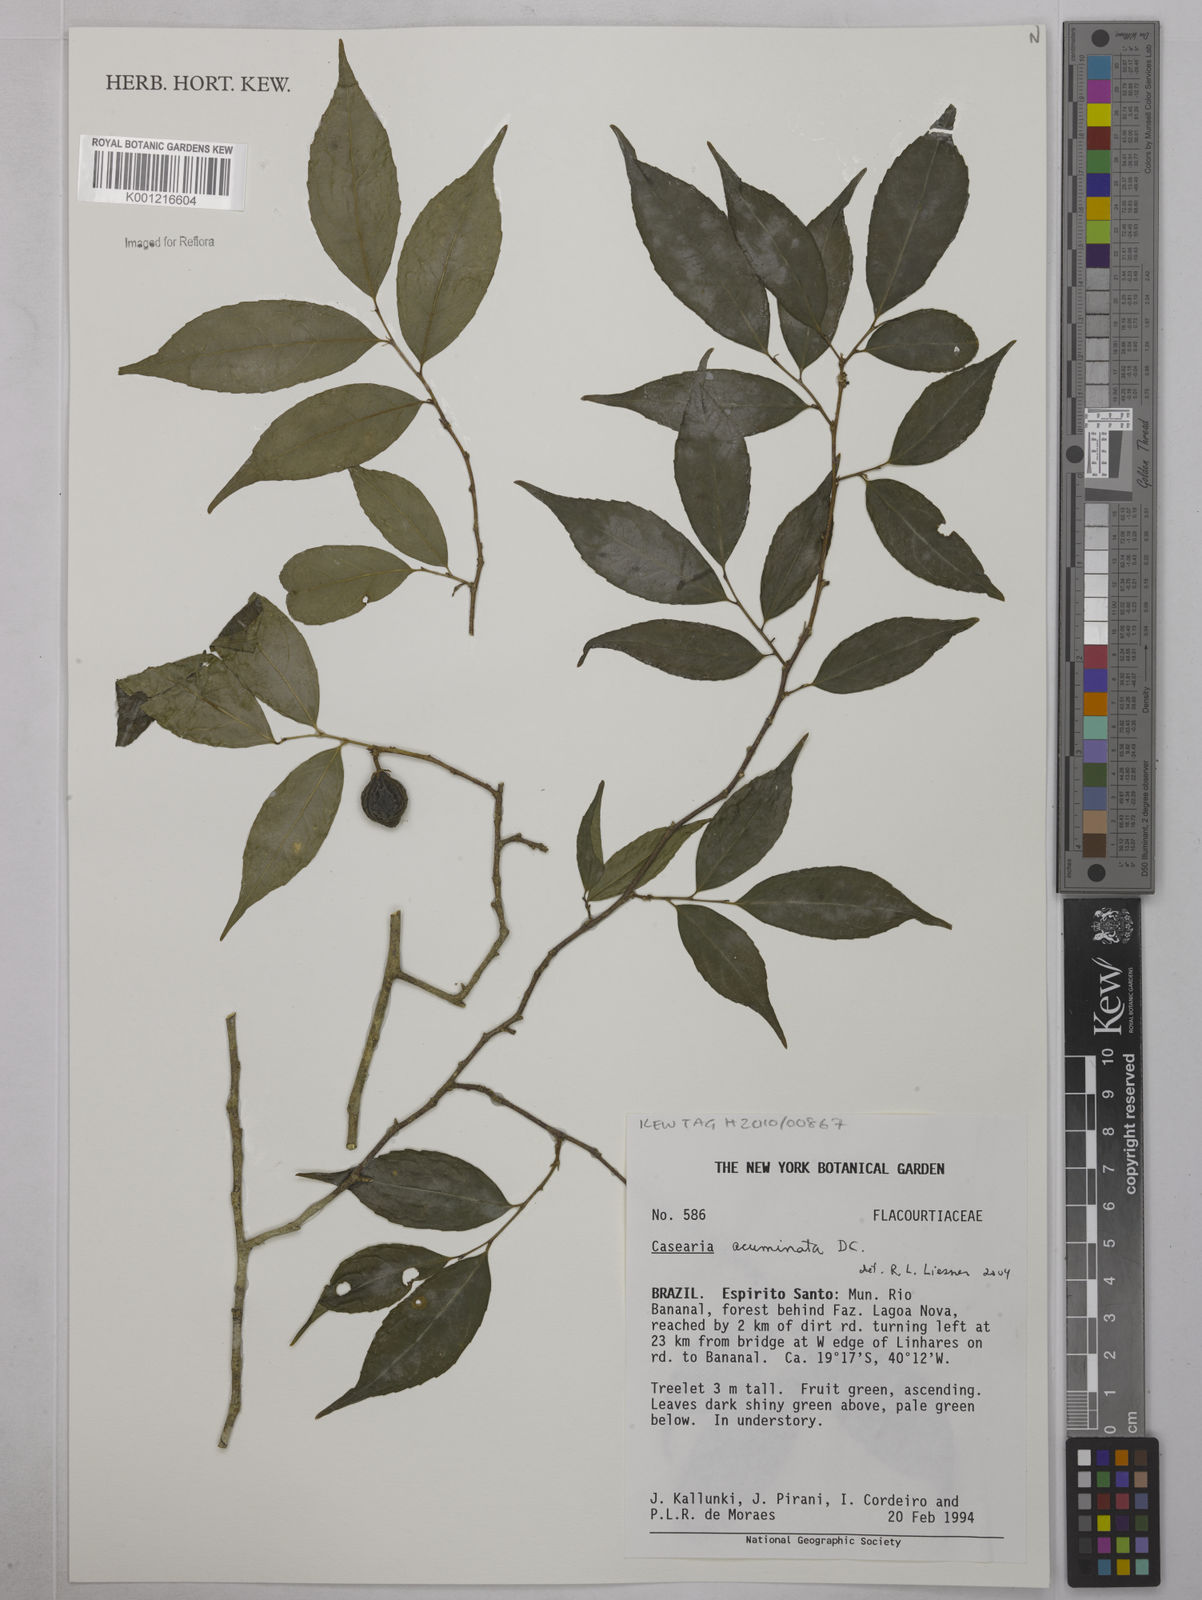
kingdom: Plantae
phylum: Tracheophyta
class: Magnoliopsida
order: Malpighiales
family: Salicaceae
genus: Casearia
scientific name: Casearia acuminata
